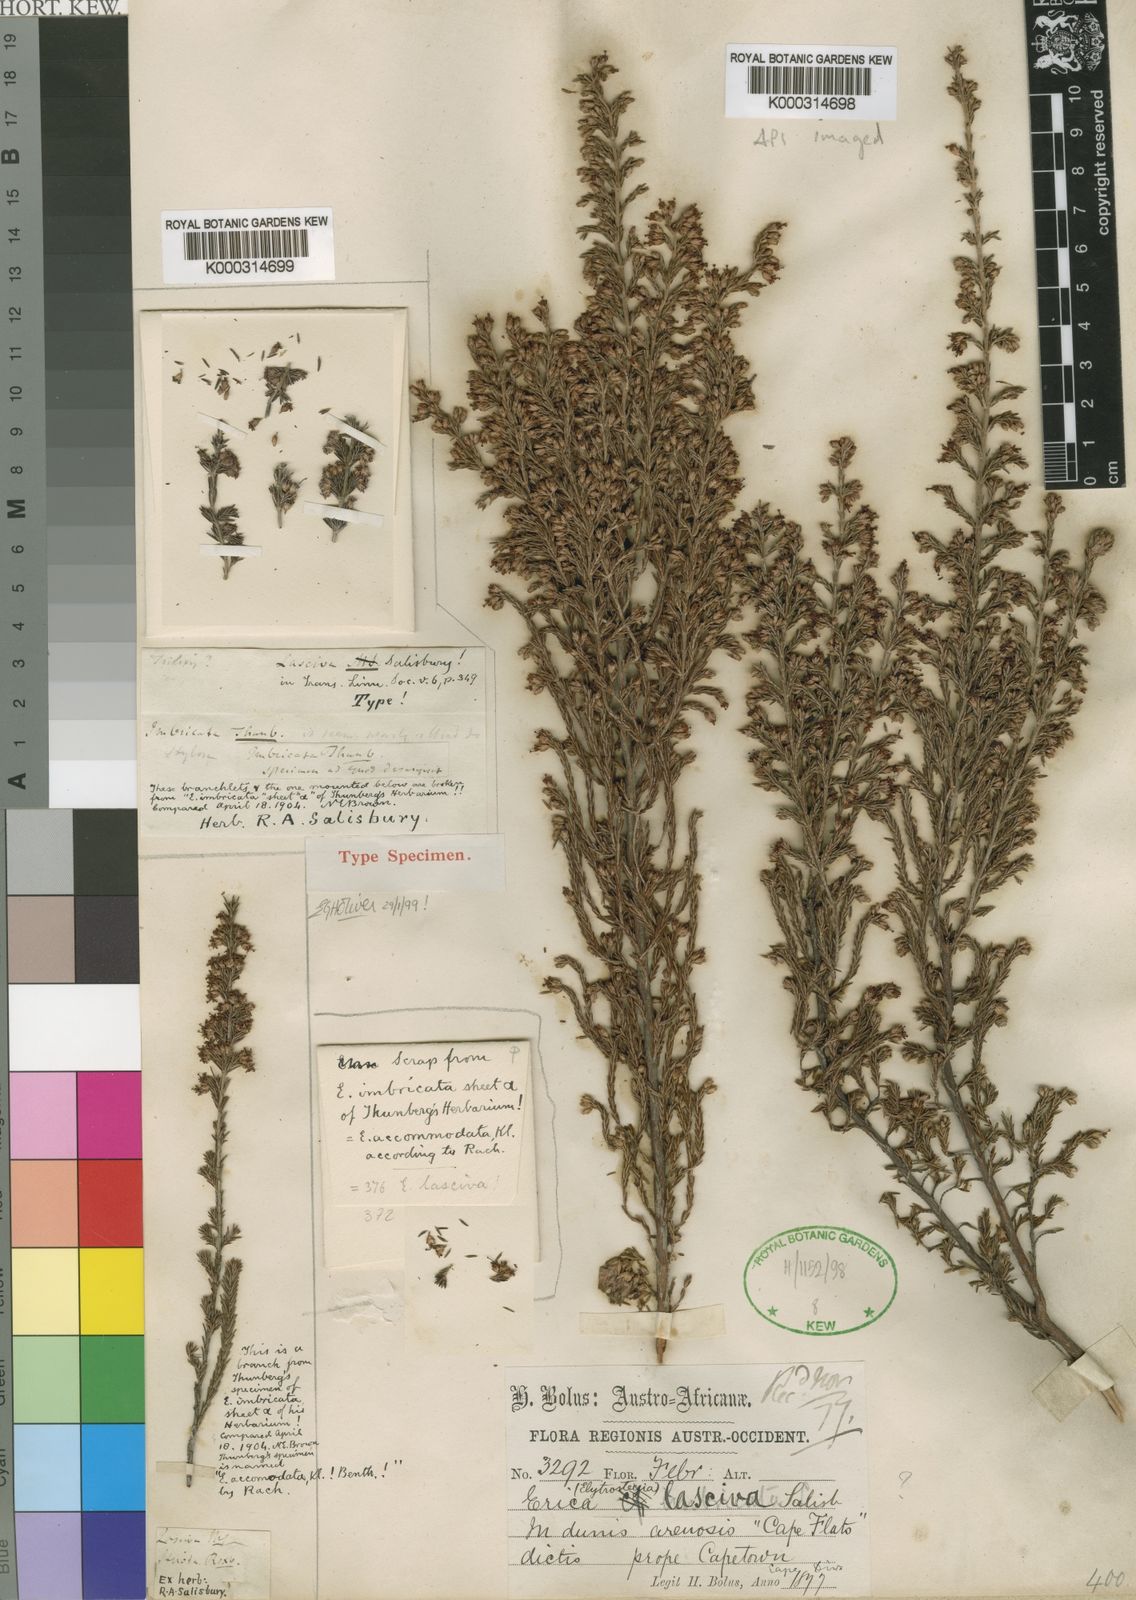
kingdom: Plantae
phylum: Tracheophyta
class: Magnoliopsida
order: Ericales
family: Ericaceae
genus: Erica
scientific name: Erica imbricata
